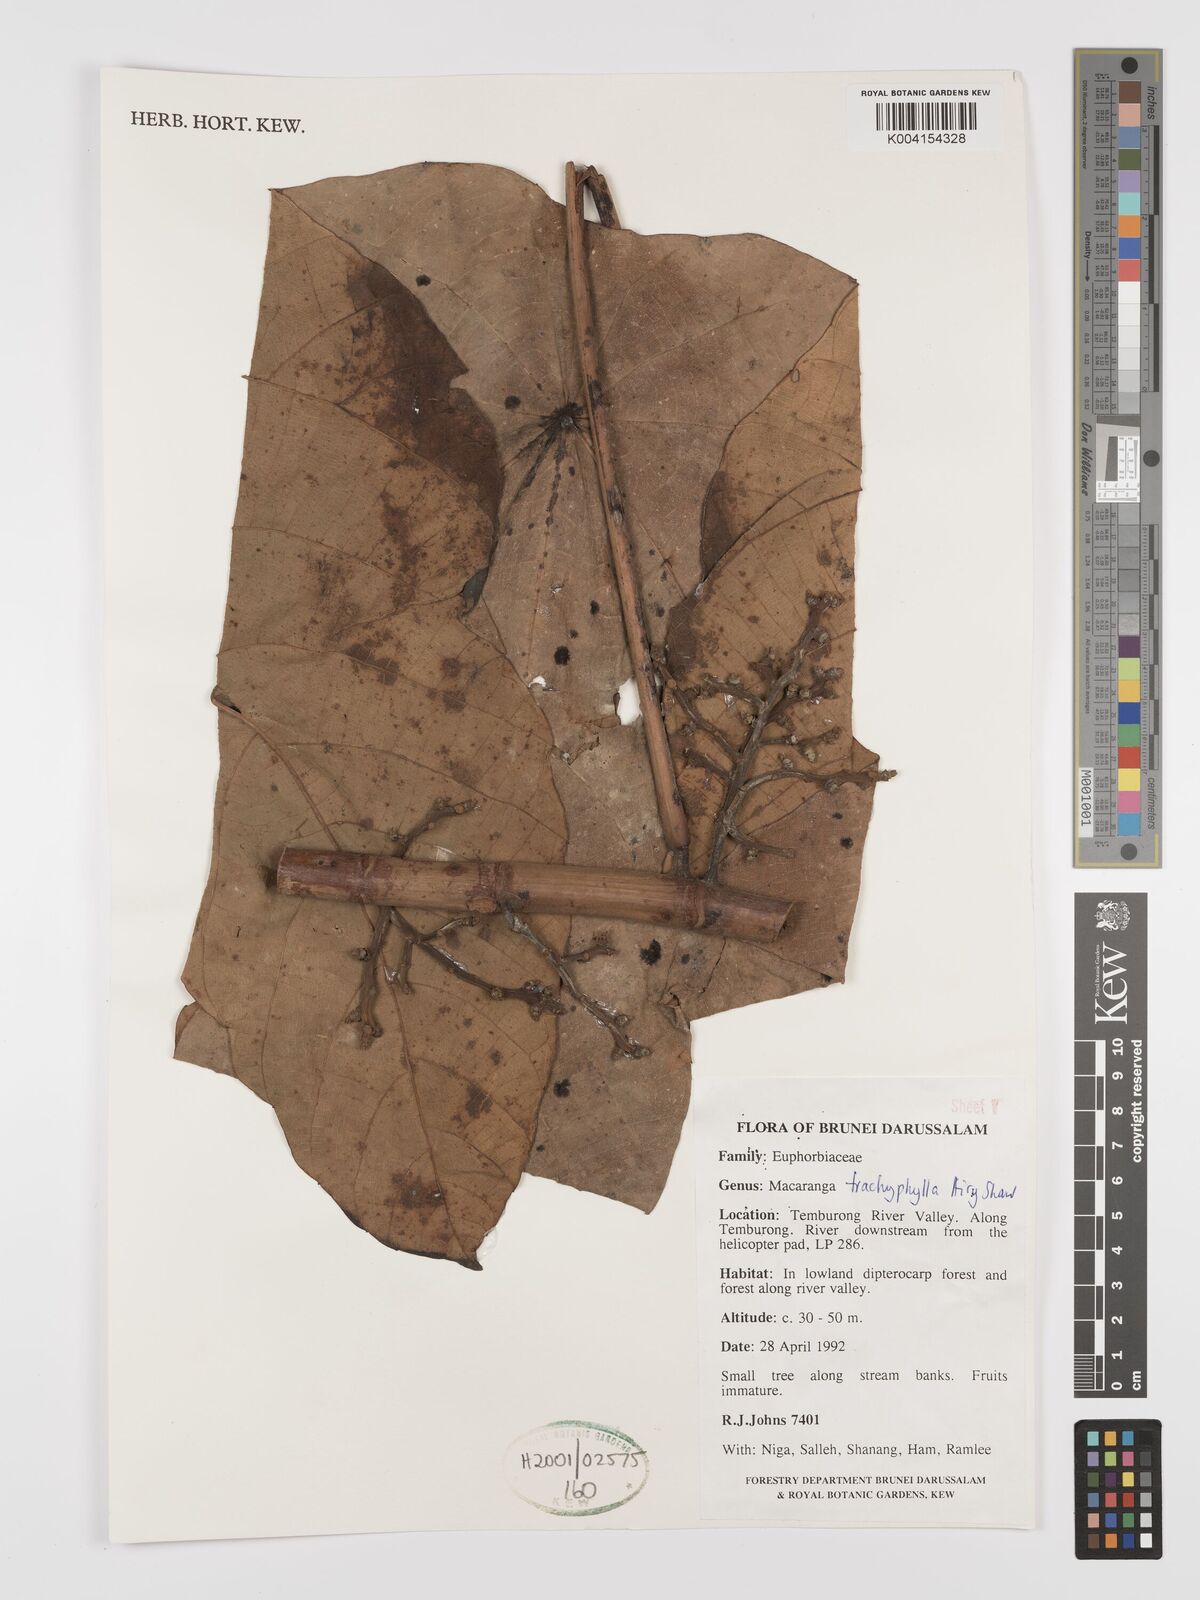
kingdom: Plantae
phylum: Tracheophyta
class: Magnoliopsida
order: Malpighiales
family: Euphorbiaceae
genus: Macaranga
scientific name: Macaranga trachyphylla
